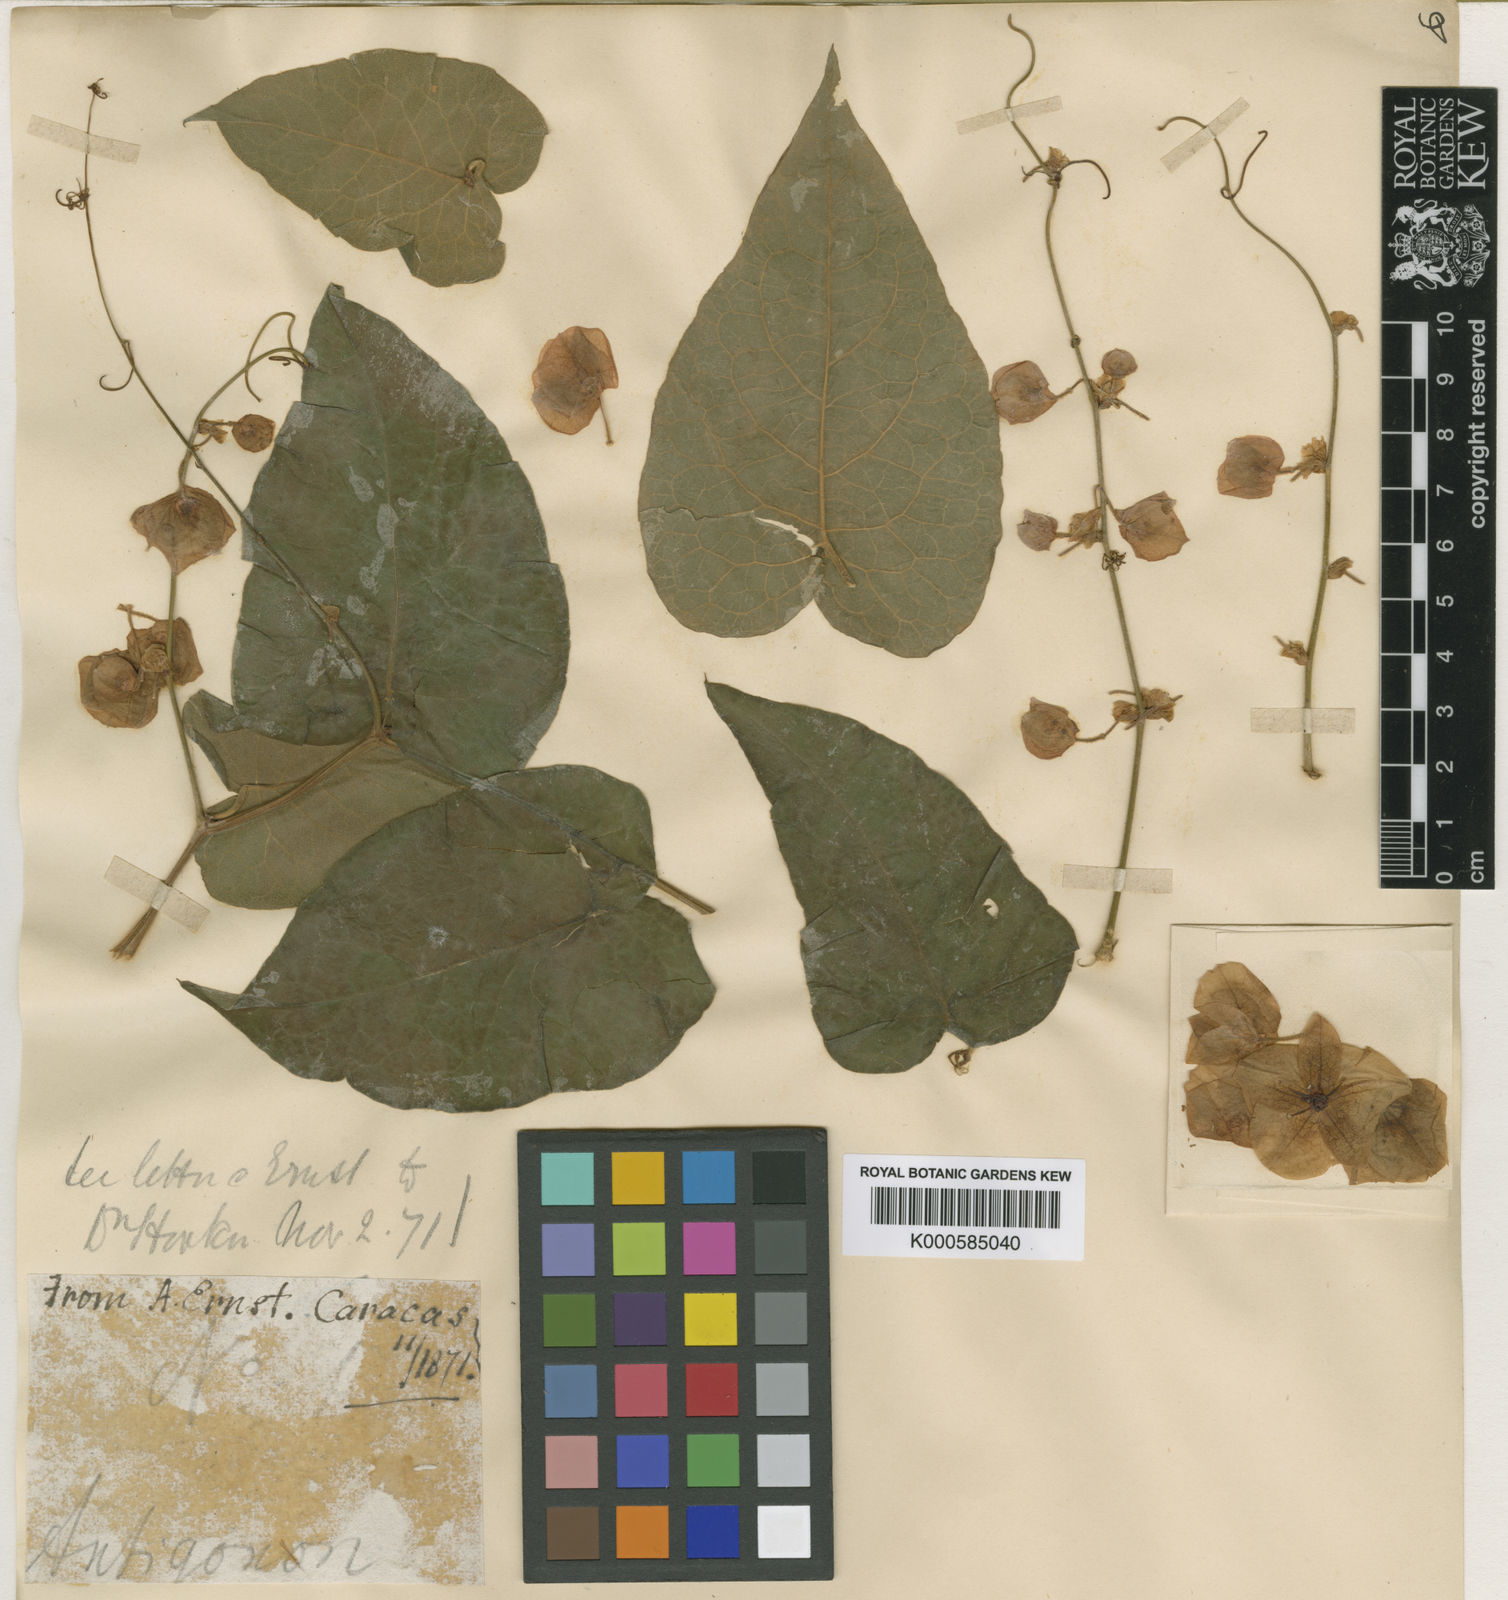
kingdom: Plantae
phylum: Tracheophyta
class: Magnoliopsida
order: Caryophyllales
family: Polygonaceae
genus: Antigonon
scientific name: Antigonon guatimalense
